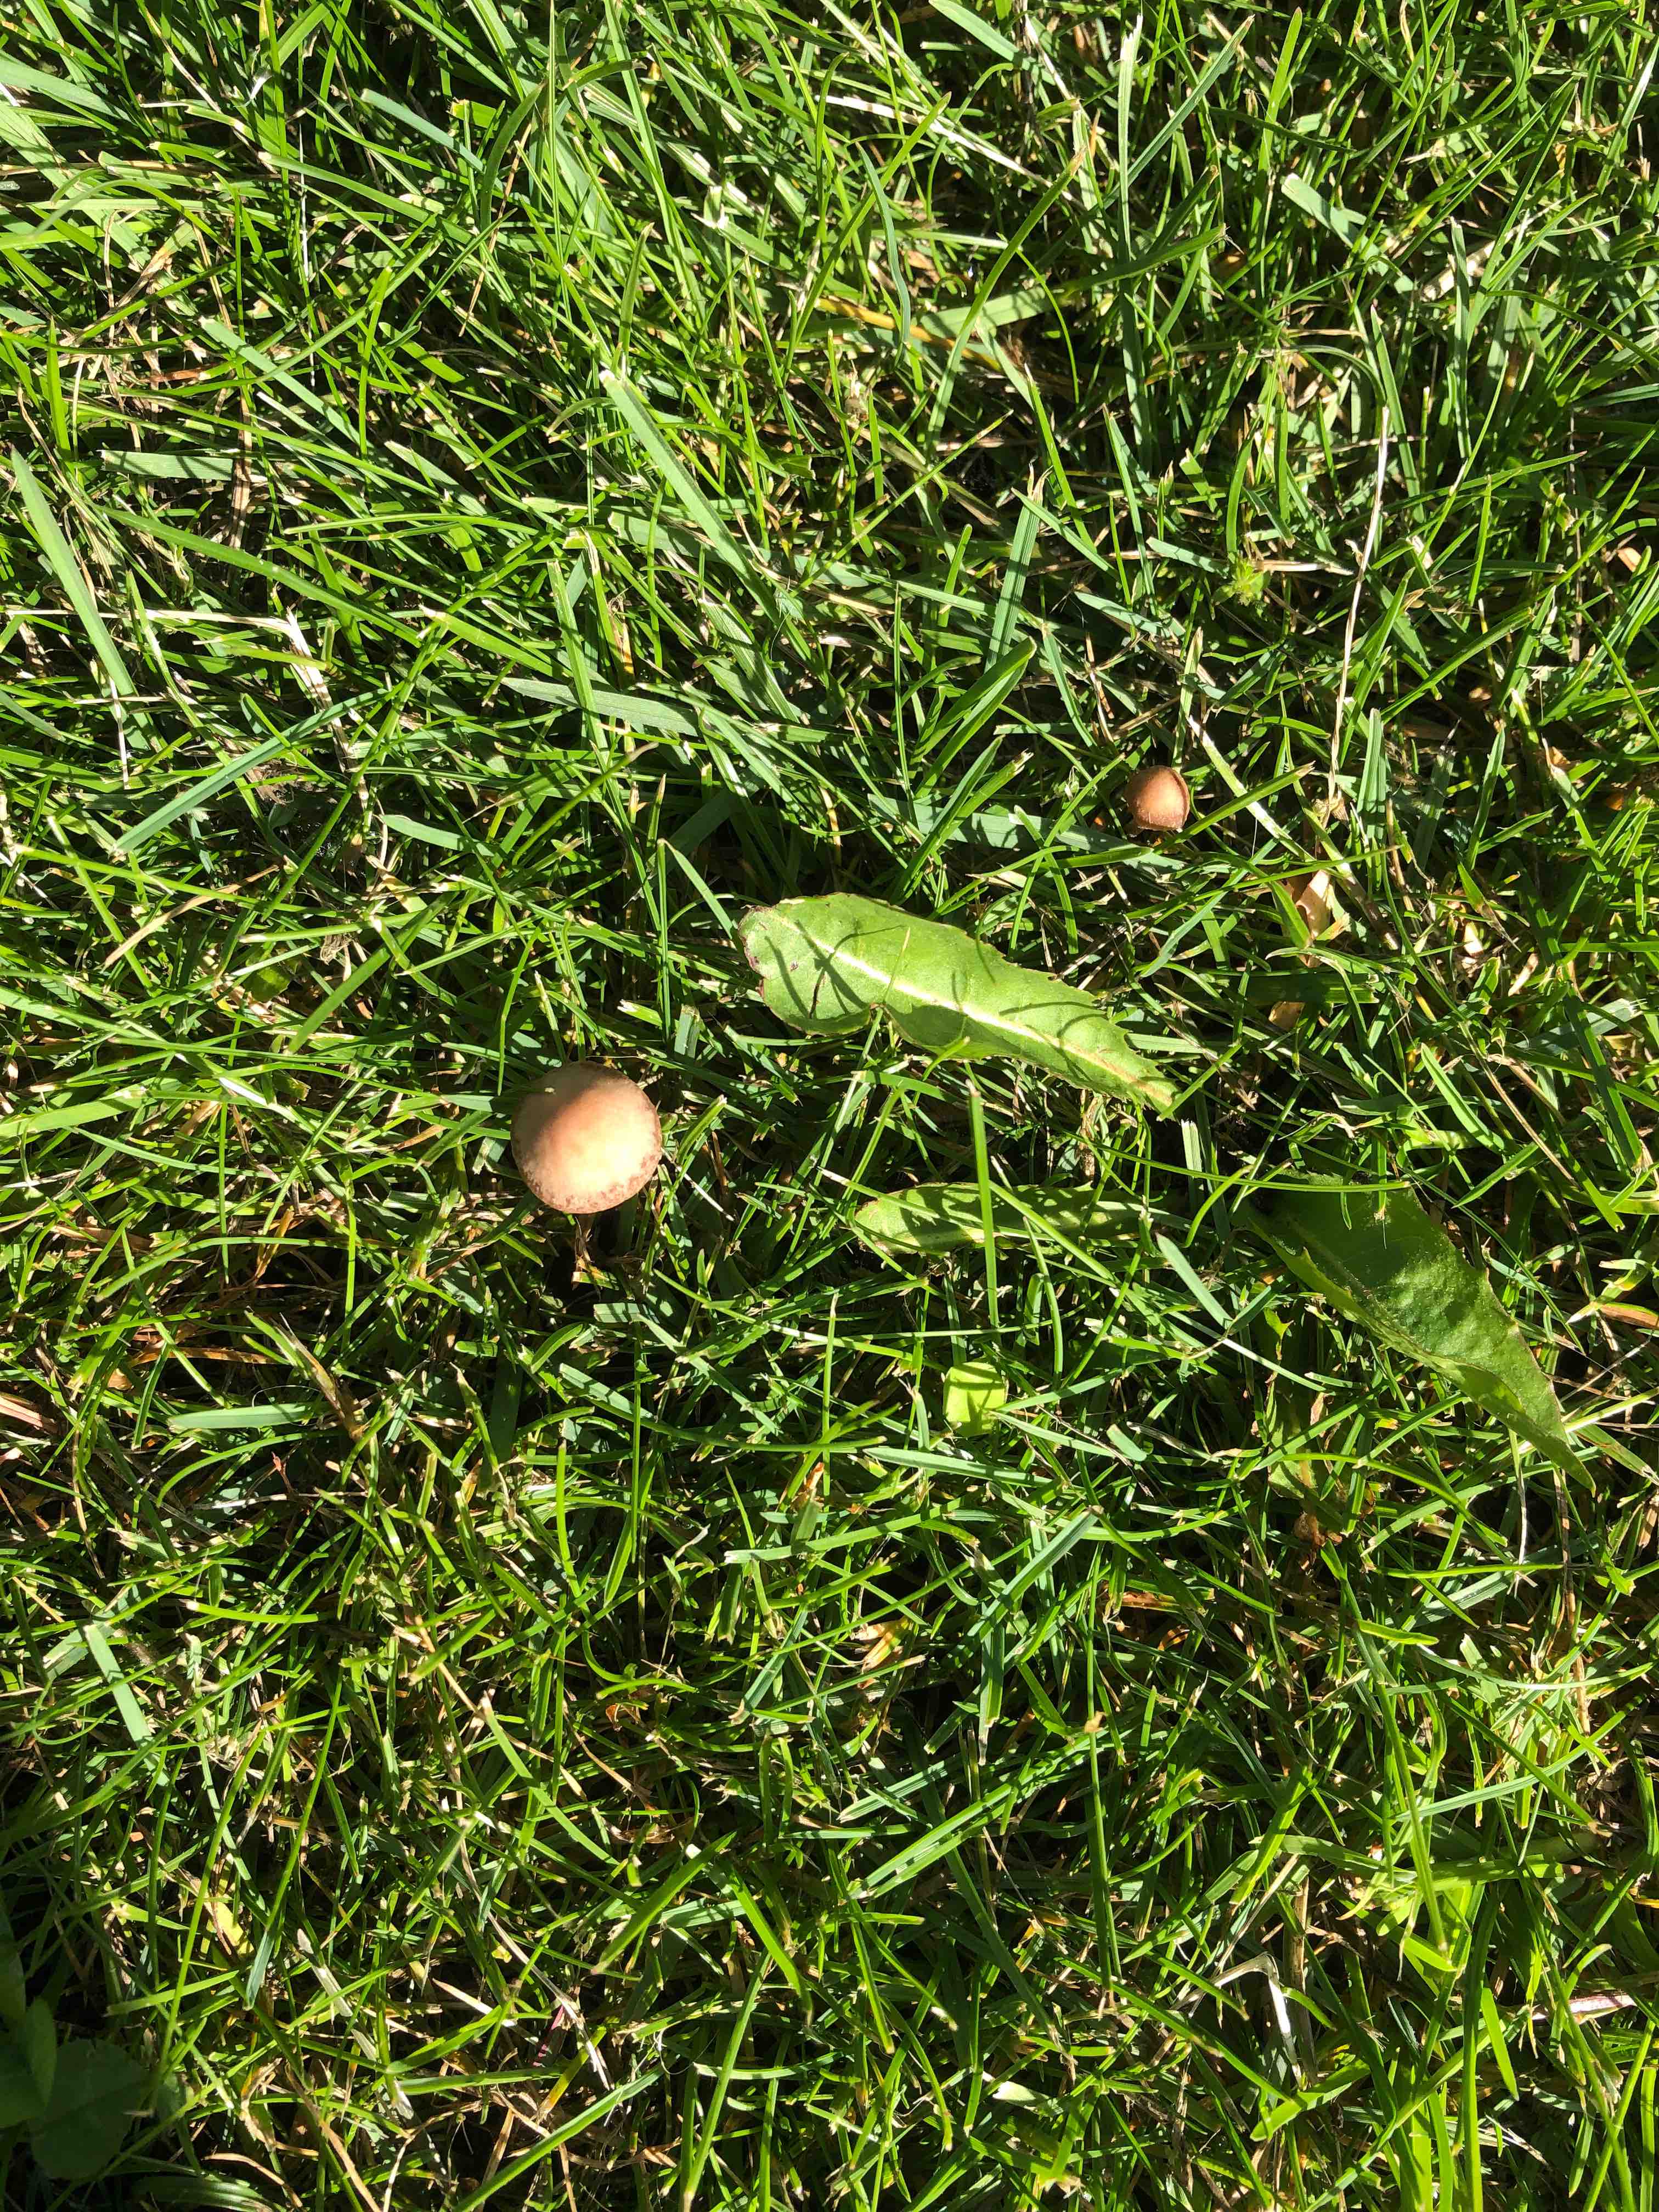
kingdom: Fungi
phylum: Basidiomycota
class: Agaricomycetes
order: Agaricales
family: Bolbitiaceae
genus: Panaeolina
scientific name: Panaeolina foenisecii
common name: høslætsvamp
